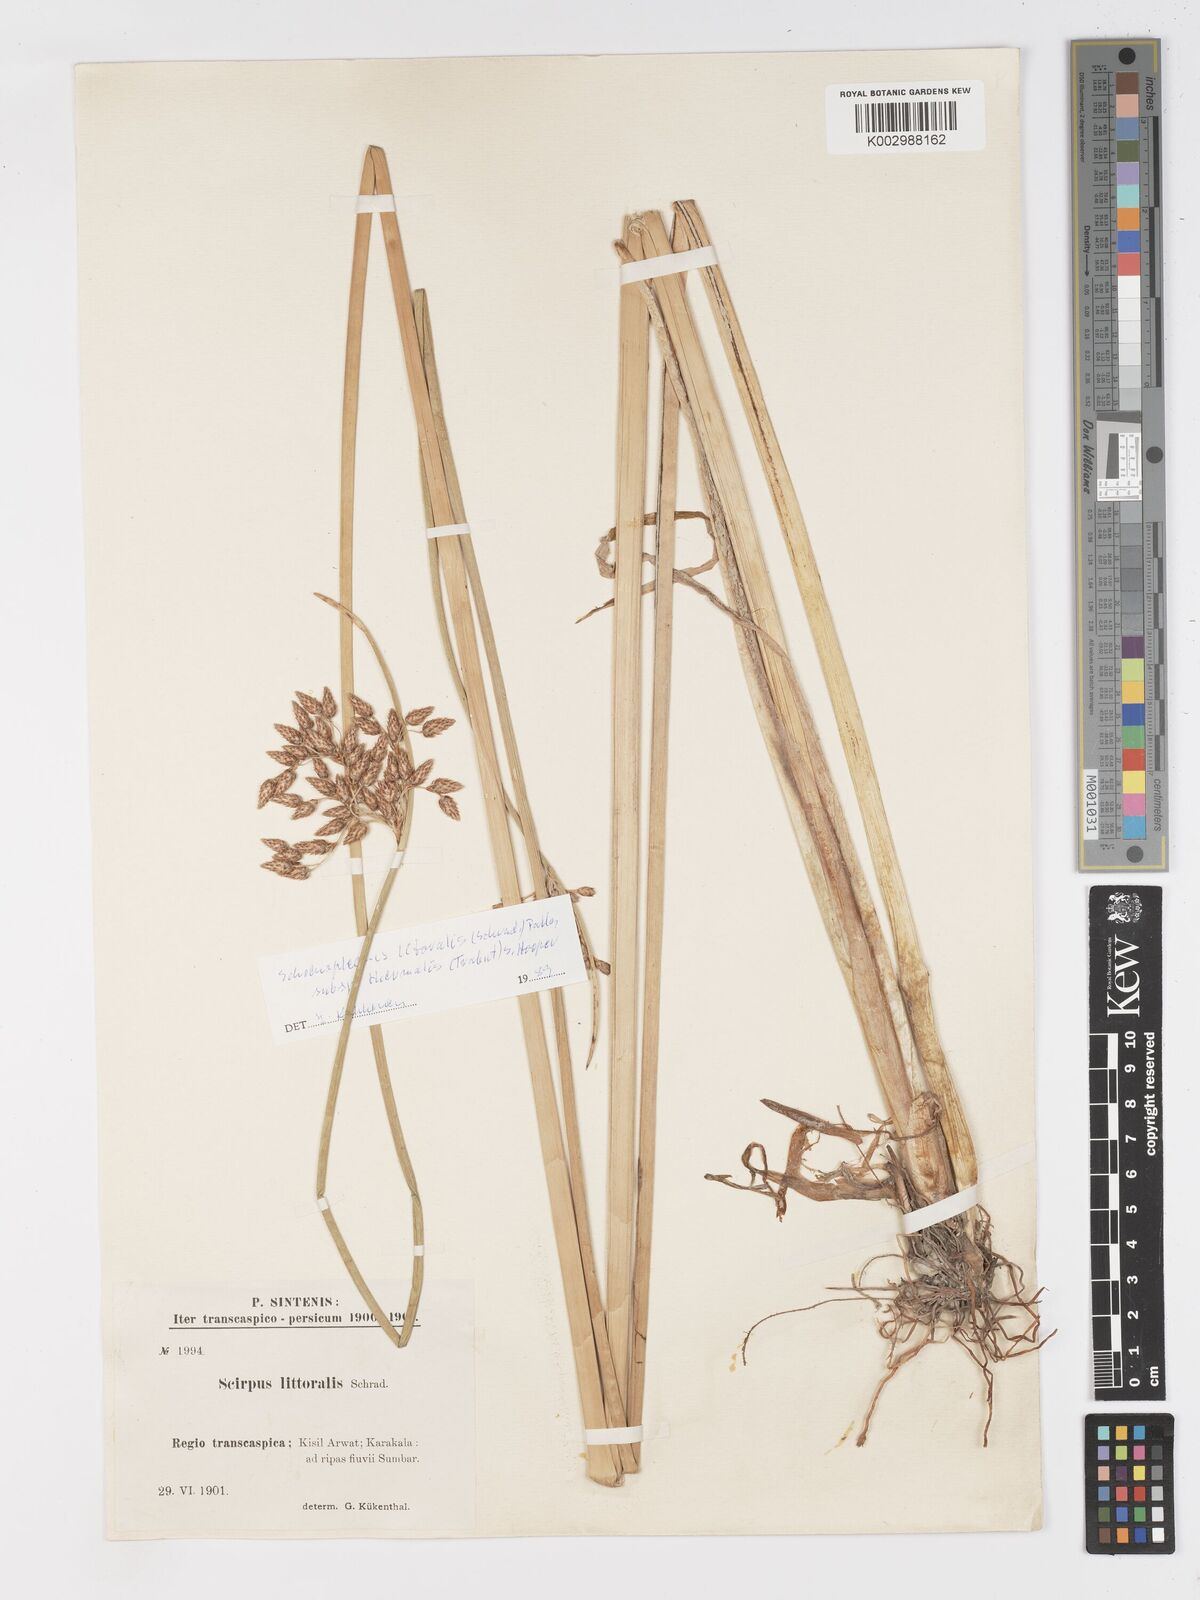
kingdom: Plantae
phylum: Tracheophyta
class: Liliopsida
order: Poales
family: Cyperaceae
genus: Schoenoplectus
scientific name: Schoenoplectus litoralis
